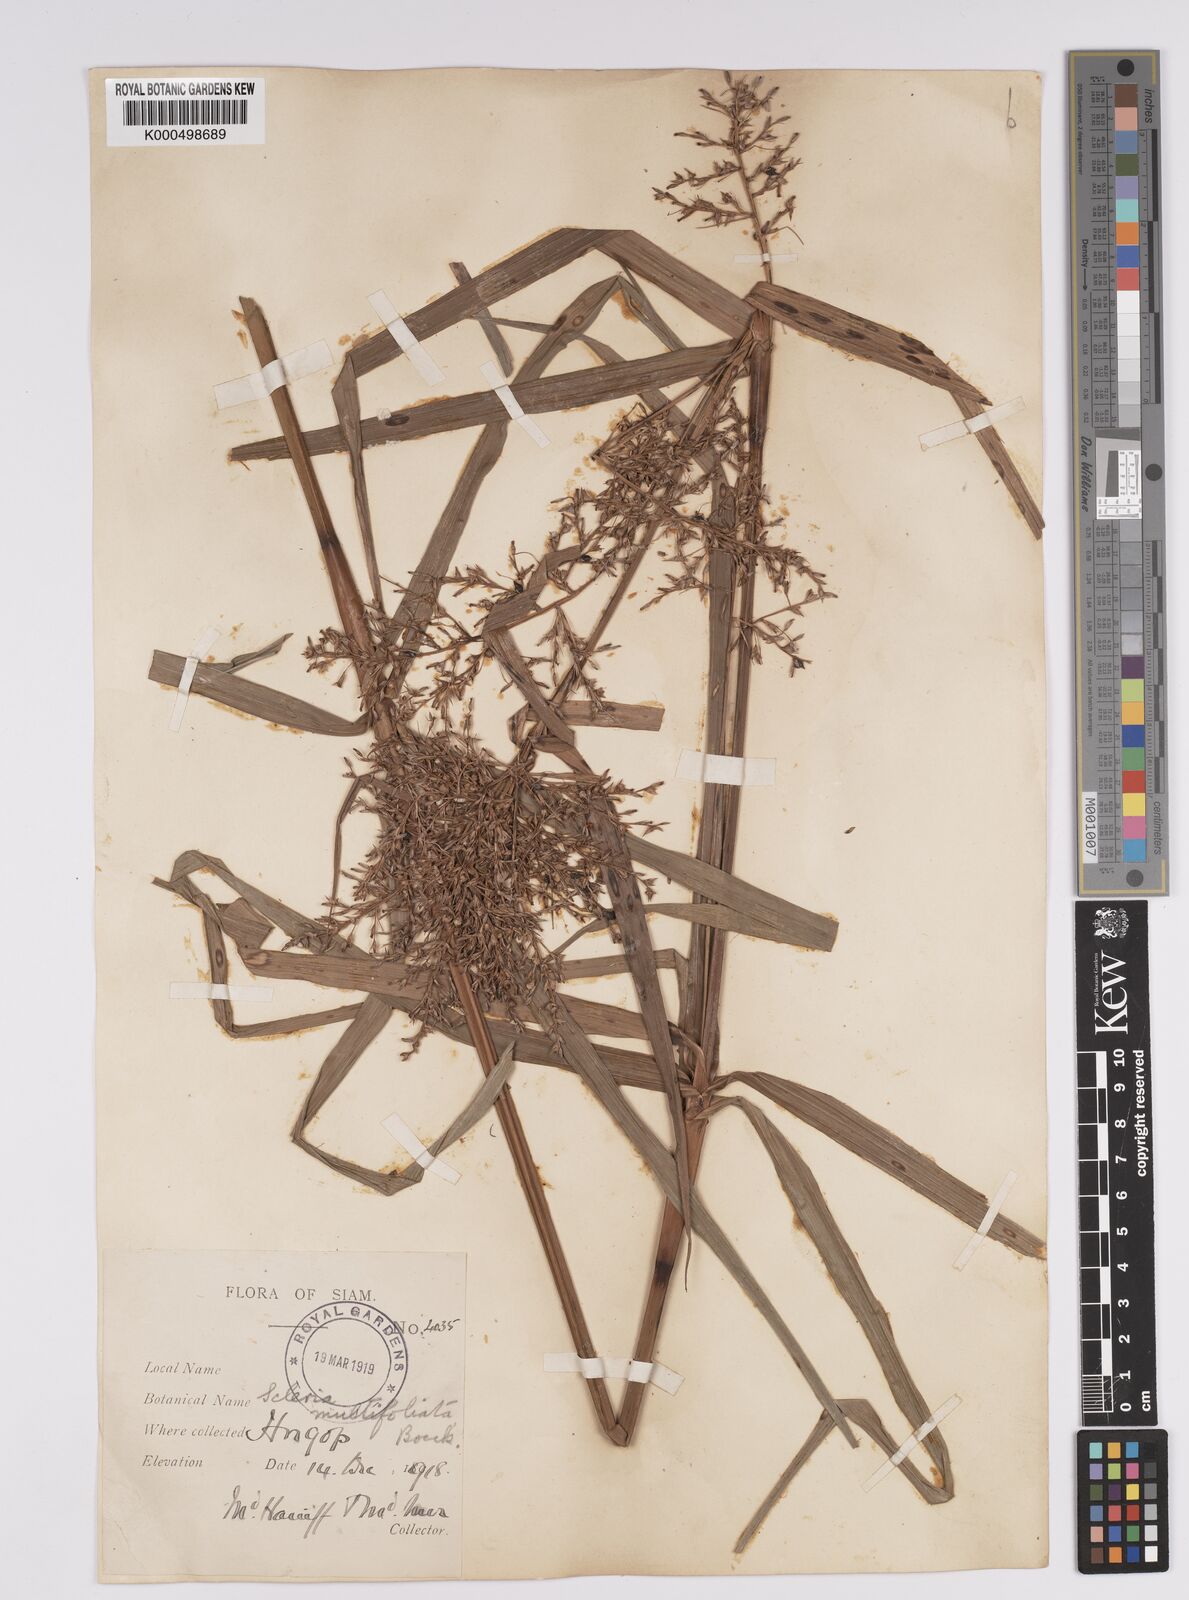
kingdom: Plantae
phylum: Tracheophyta
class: Liliopsida
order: Poales
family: Cyperaceae
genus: Scleria
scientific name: Scleria purpurascens
